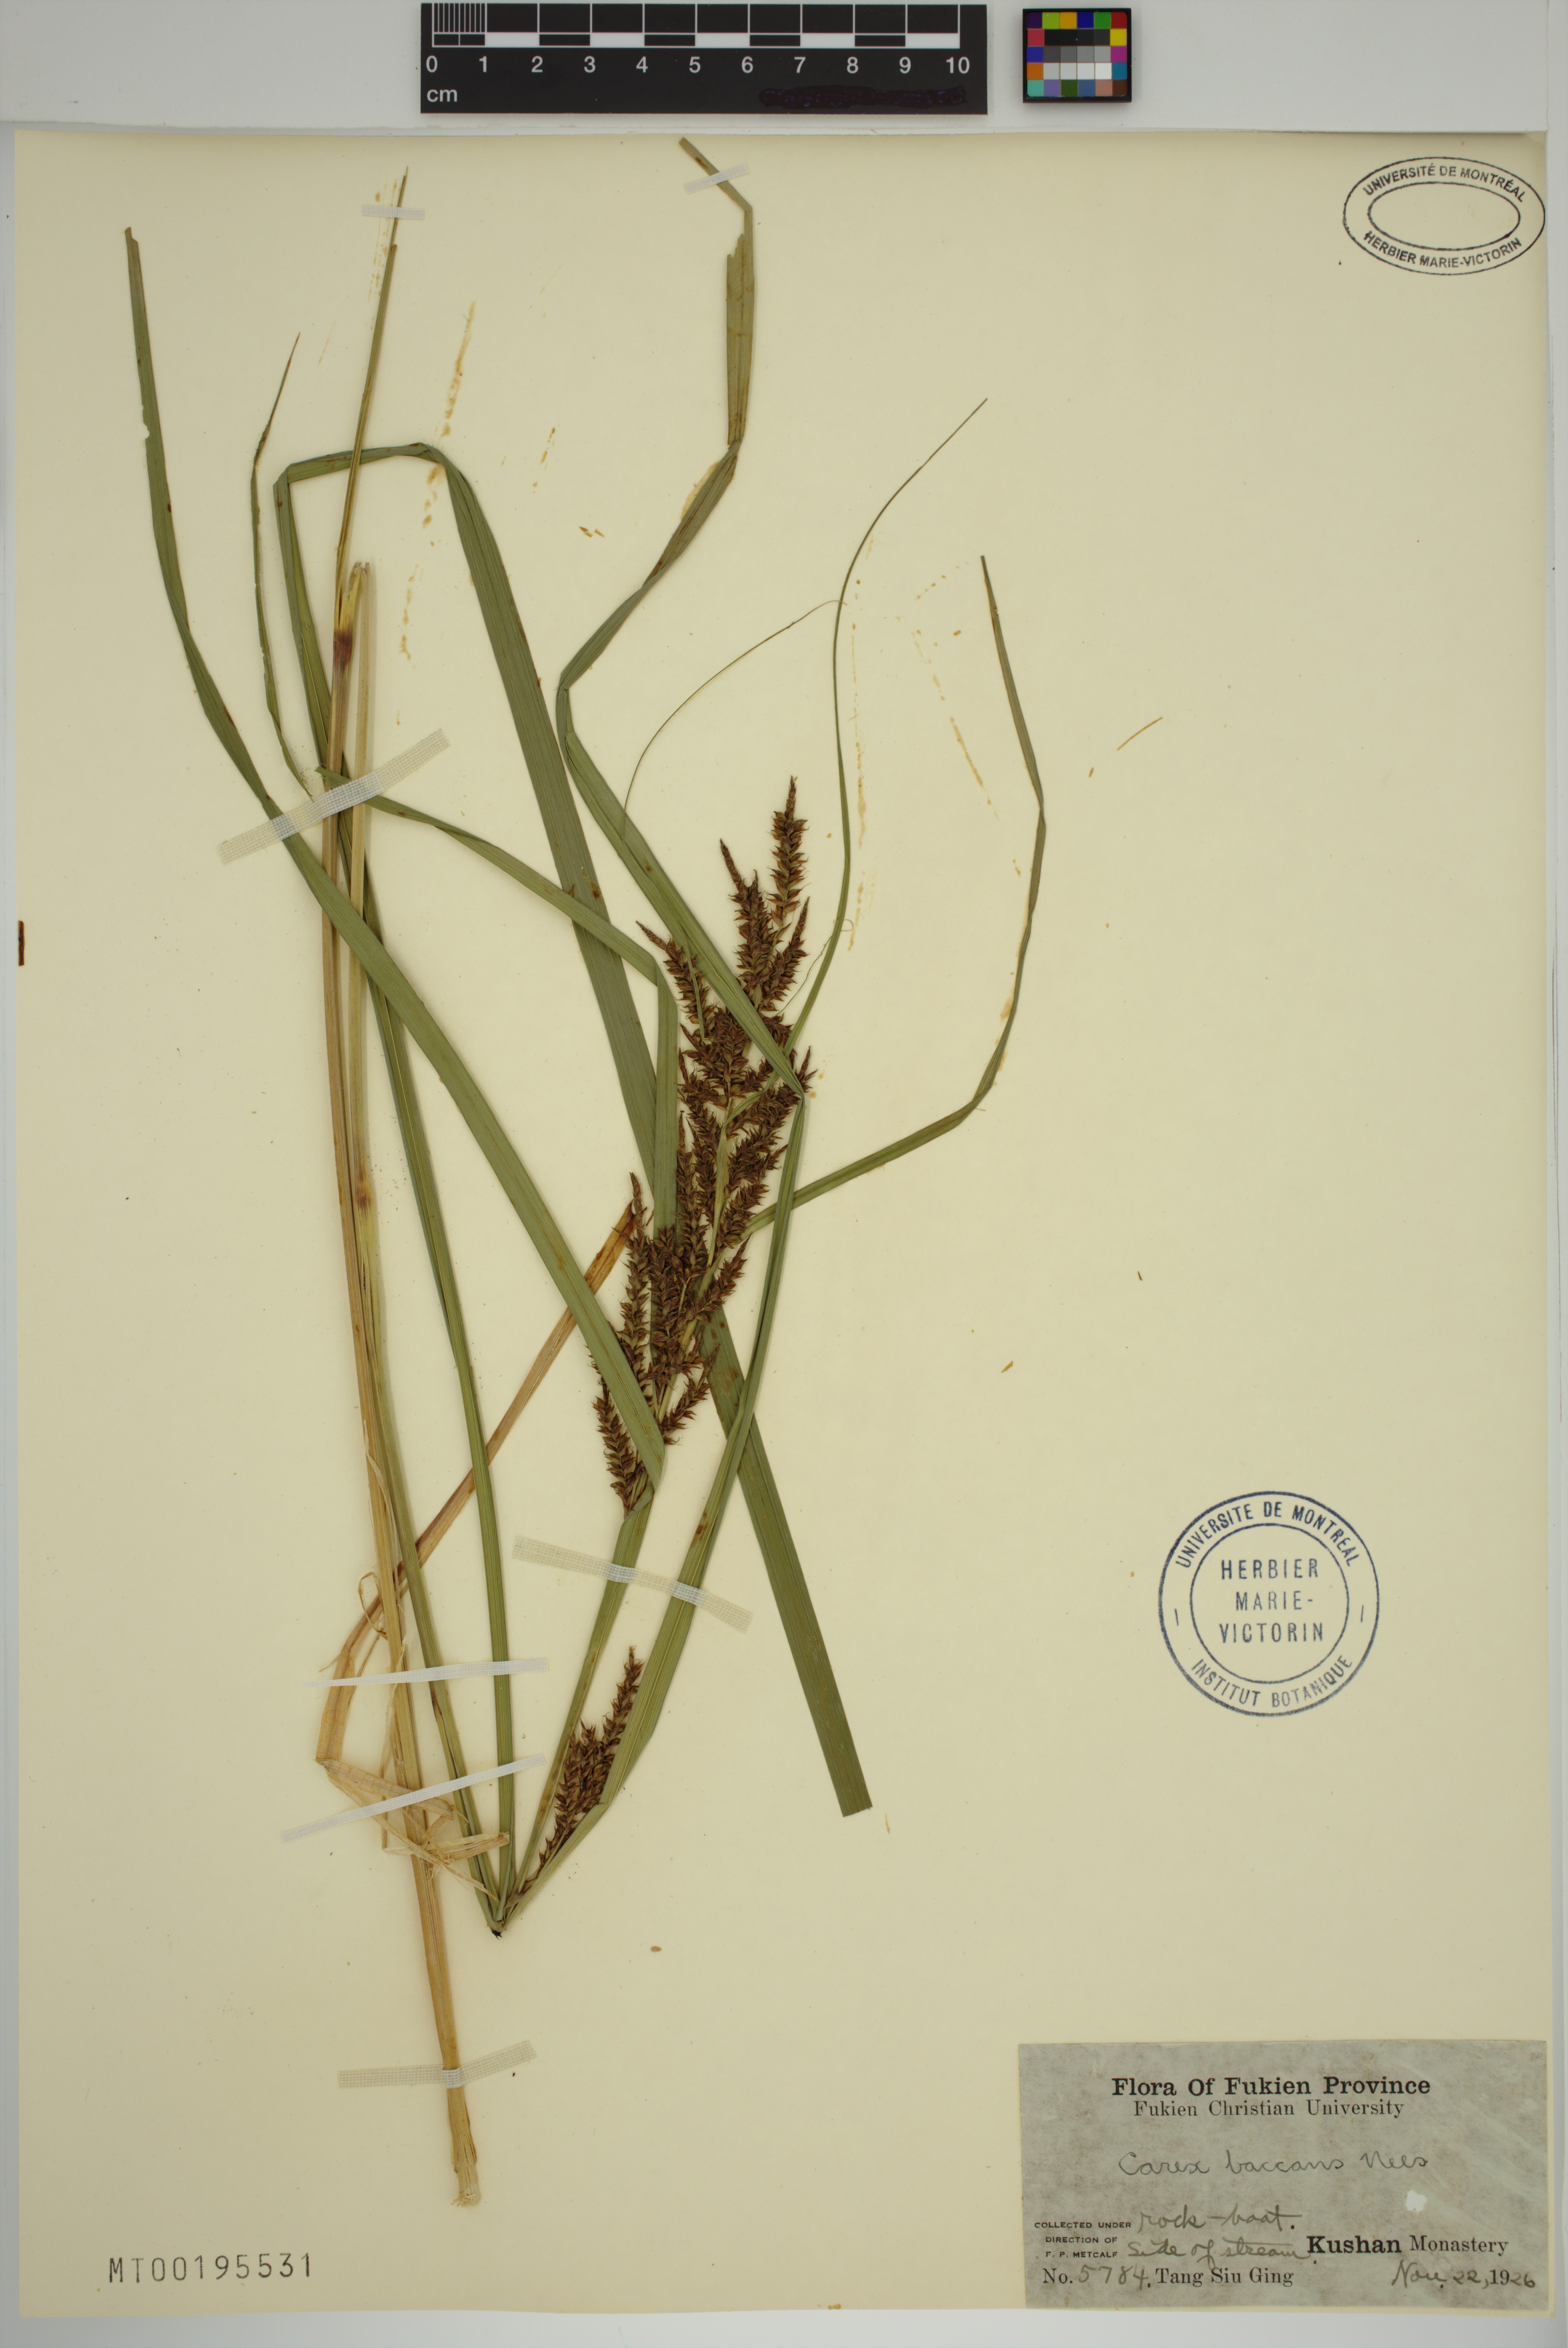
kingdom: Plantae
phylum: Tracheophyta
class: Liliopsida
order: Poales
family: Cyperaceae
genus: Carex
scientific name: Carex baccans
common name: Crimson seeded sedge
